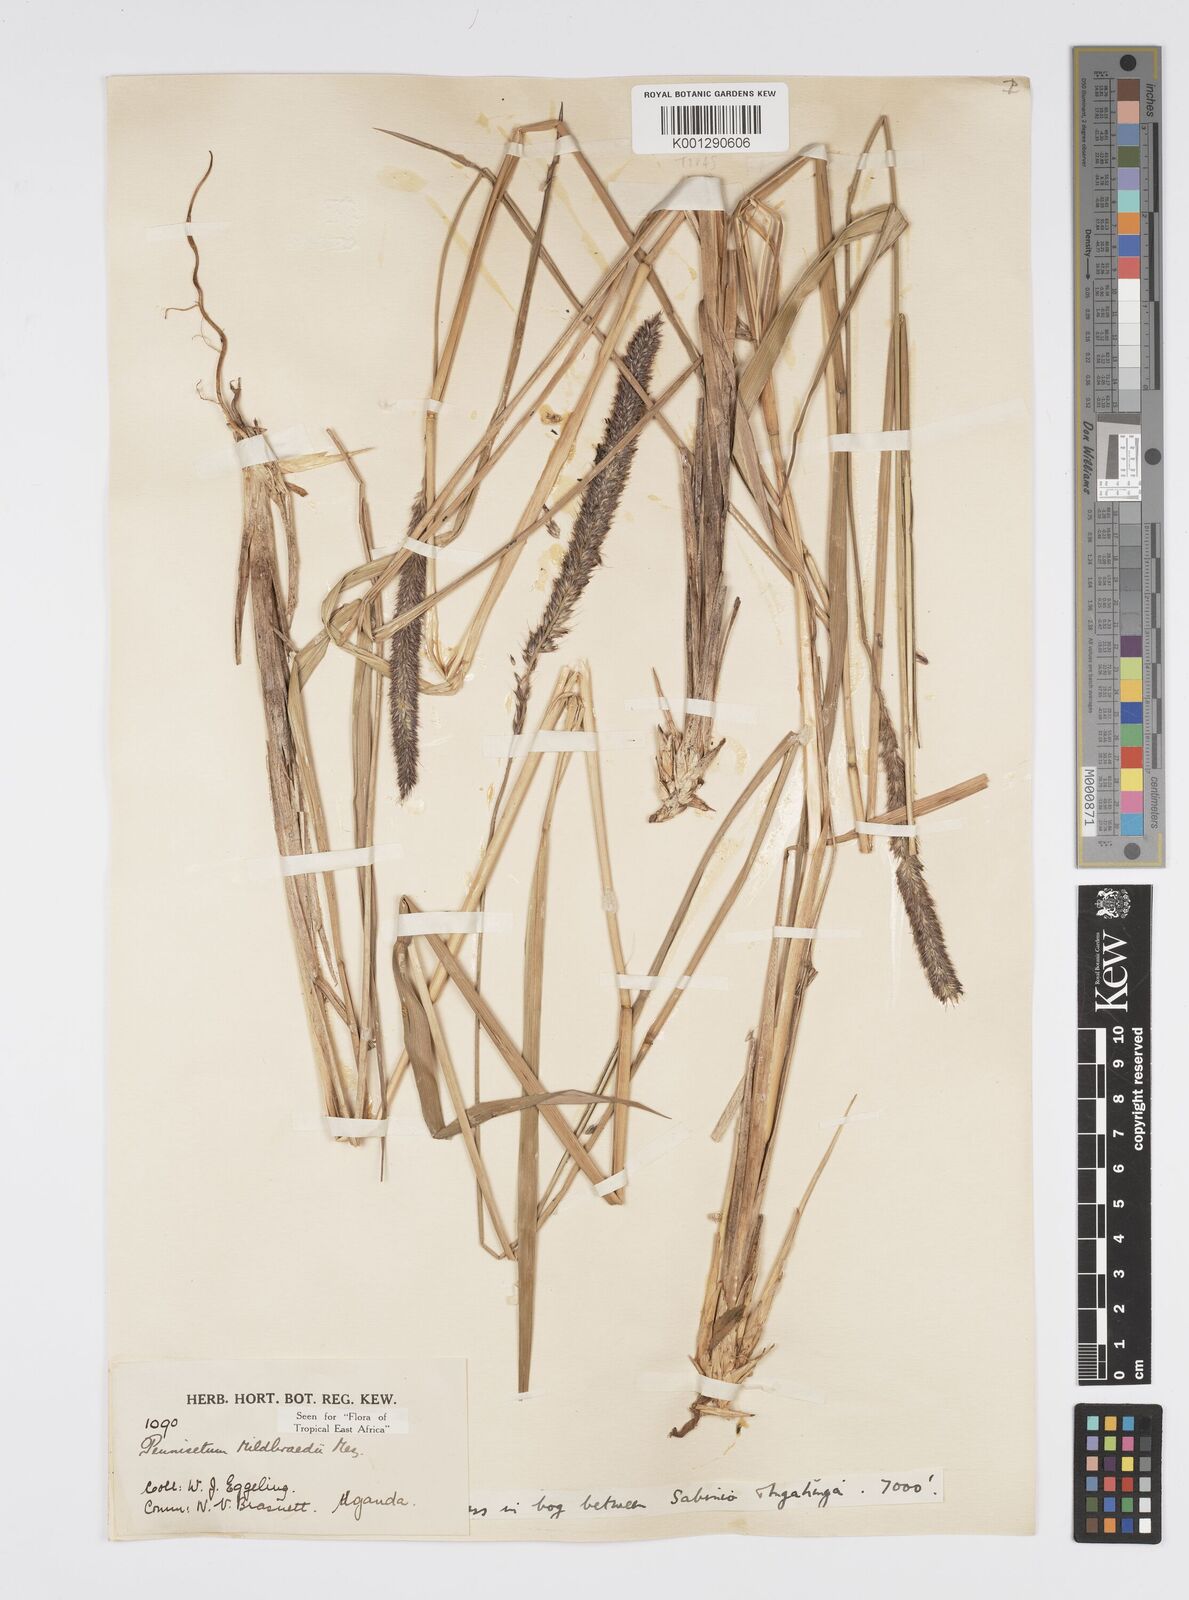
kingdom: Plantae
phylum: Tracheophyta
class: Liliopsida
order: Poales
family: Poaceae
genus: Cenchrus
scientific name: Cenchrus Pennisetum spec
